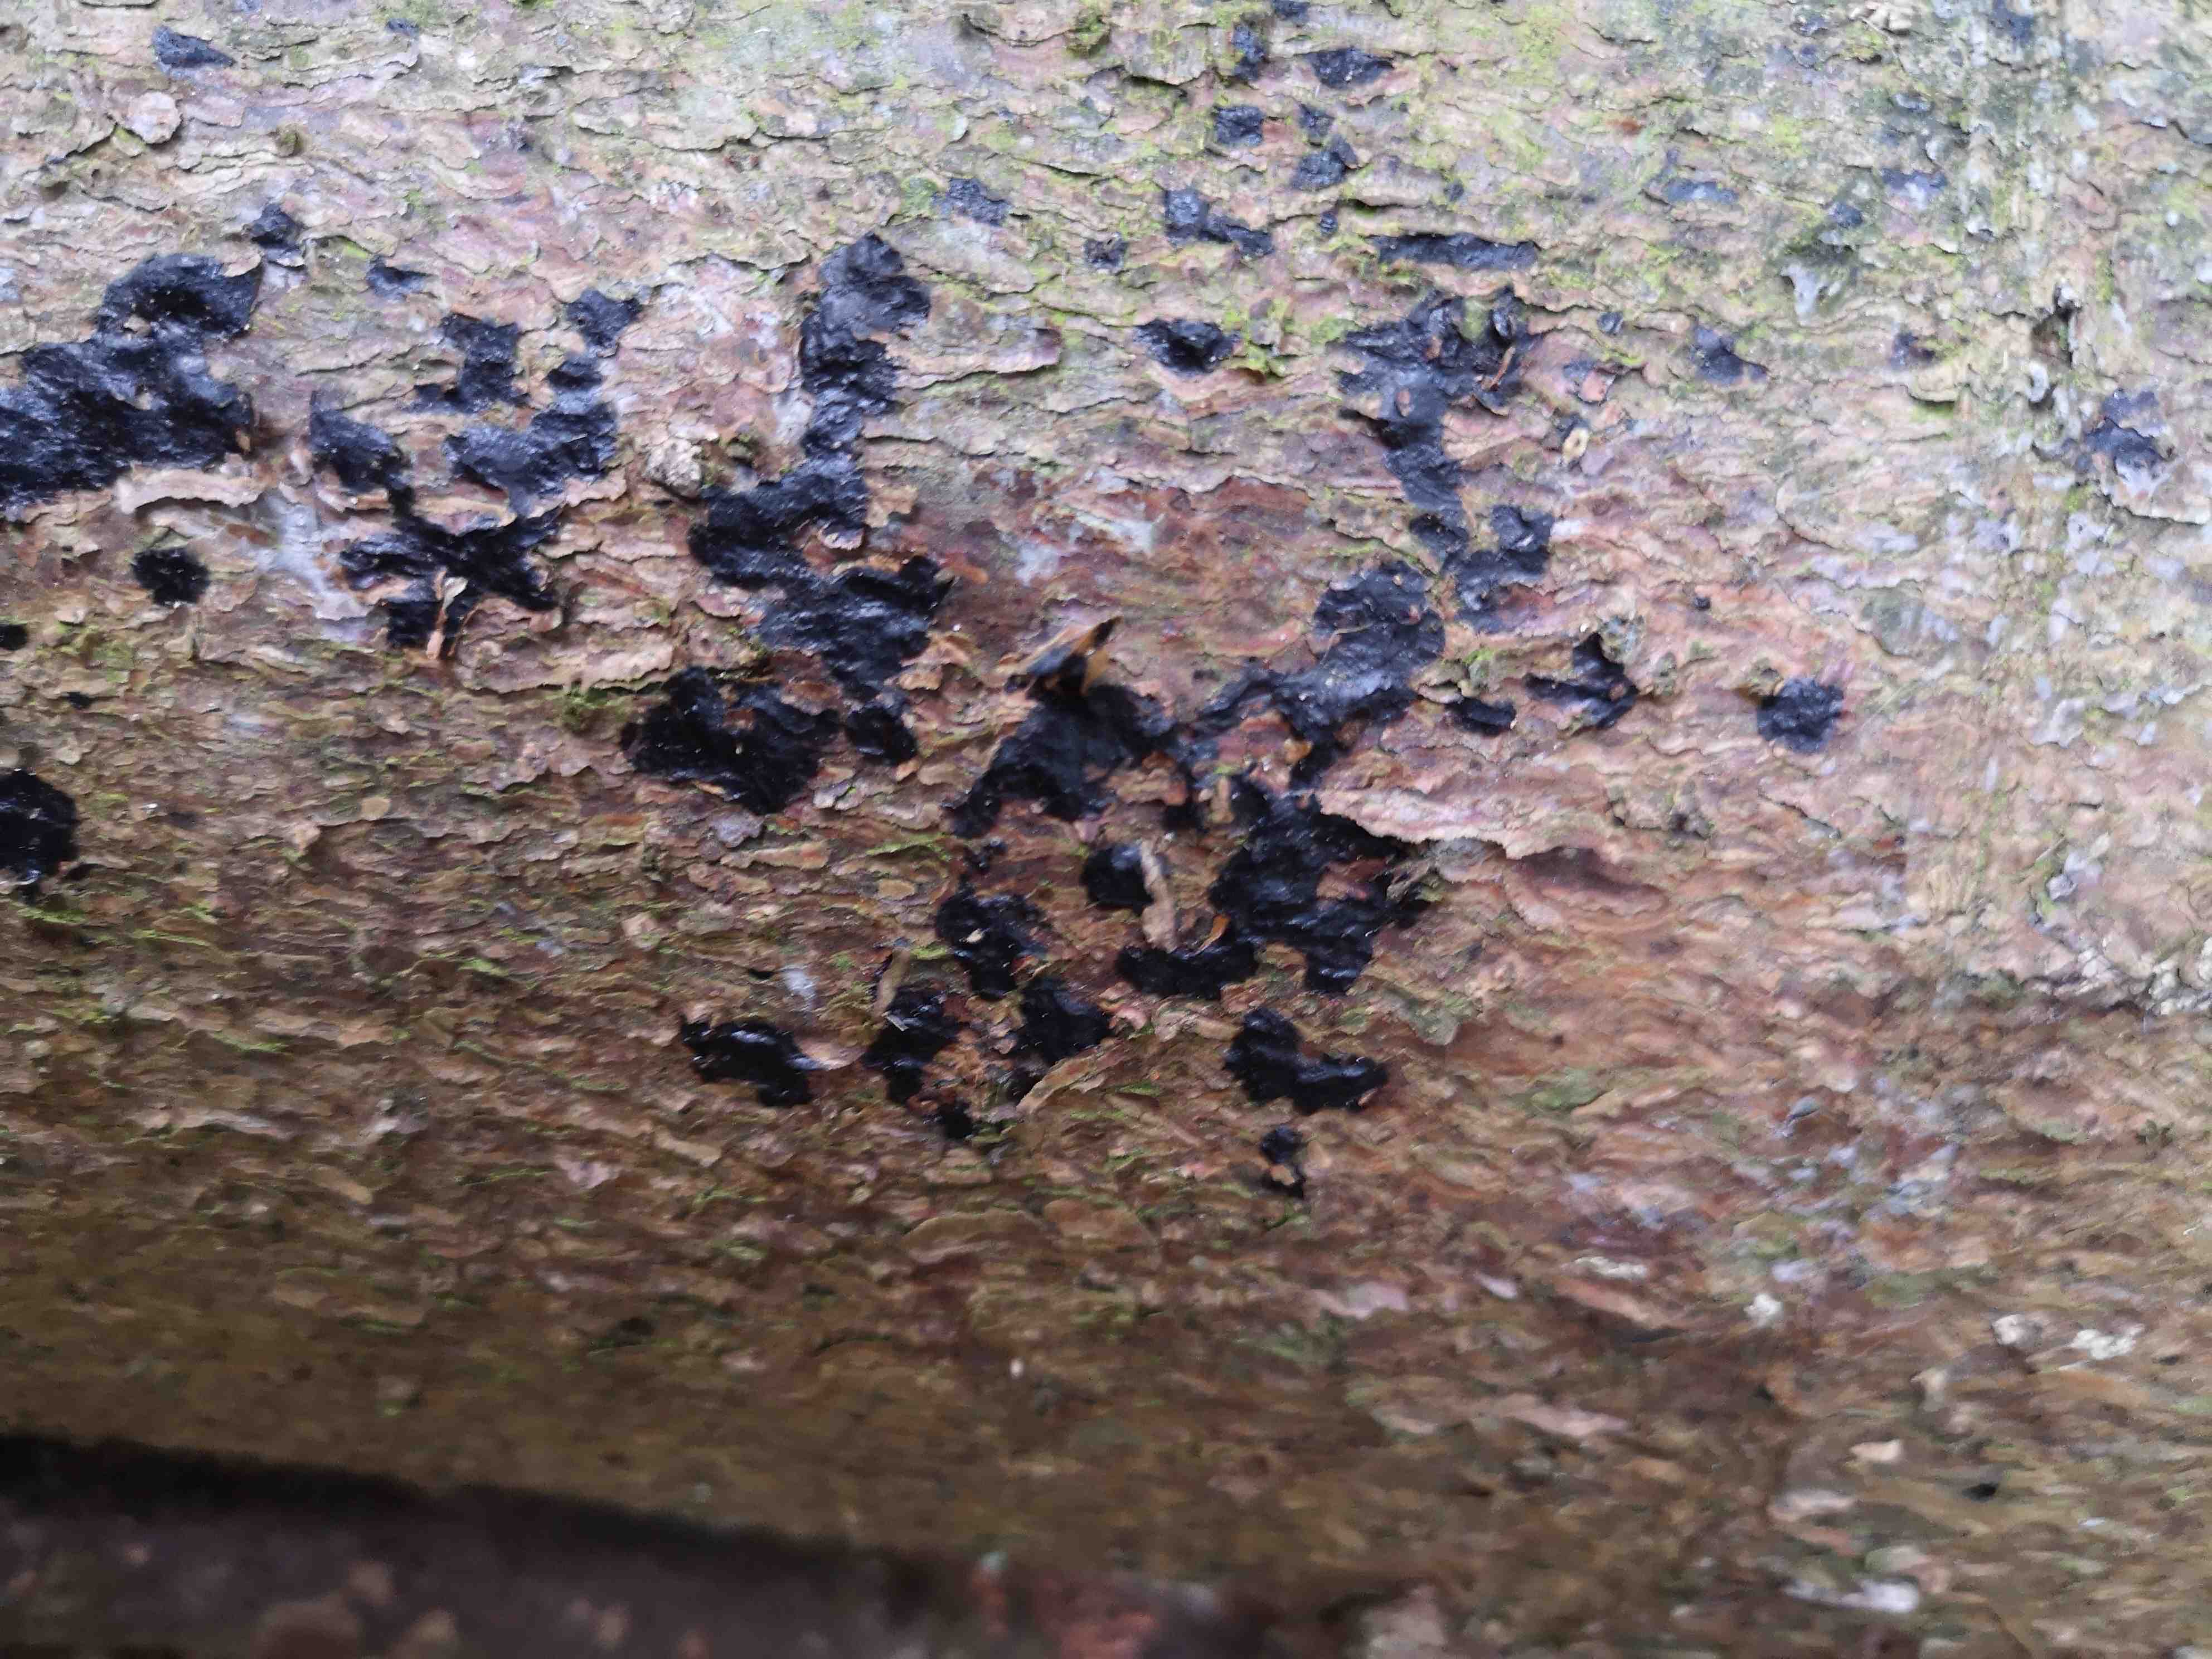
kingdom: Fungi
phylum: Basidiomycota
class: Agaricomycetes
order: Auriculariales
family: Auriculariaceae
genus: Exidia
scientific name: Exidia pithya
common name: gran-bævretop
